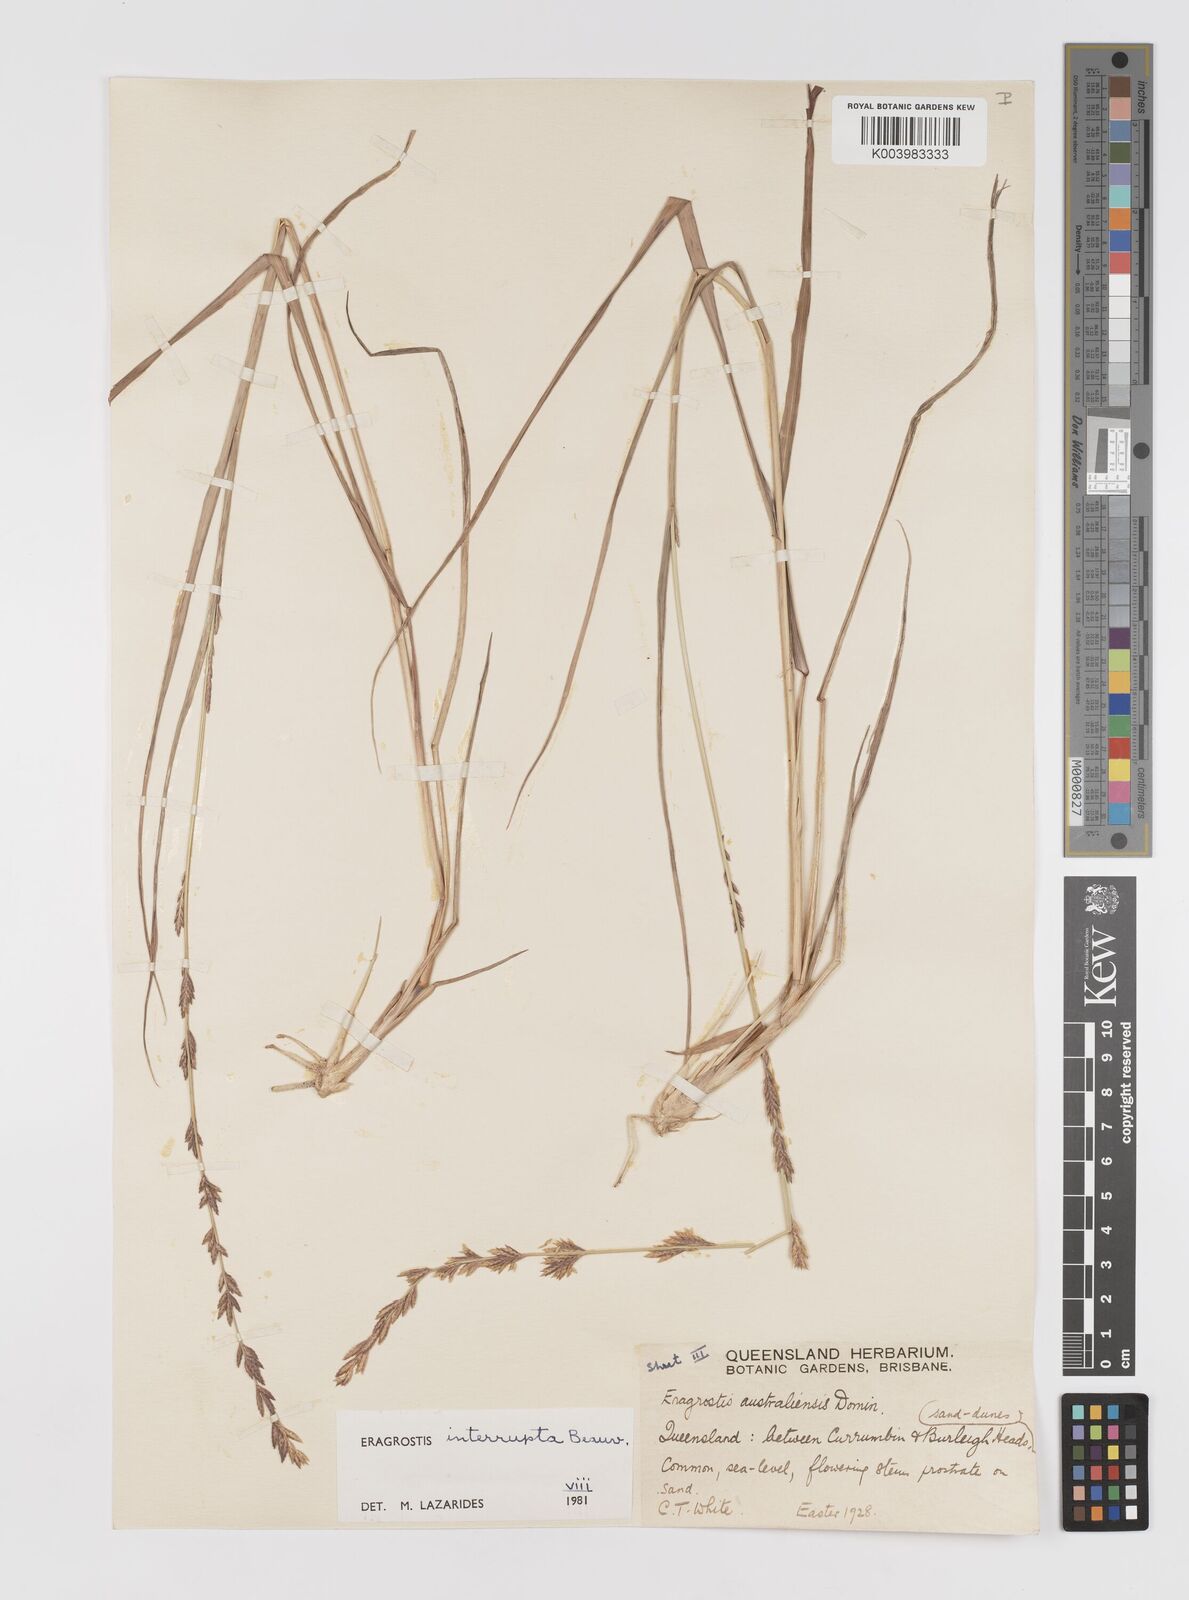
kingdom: Plantae
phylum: Tracheophyta
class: Liliopsida
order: Poales
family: Poaceae
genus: Eragrostis
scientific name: Eragrostis interrupta
